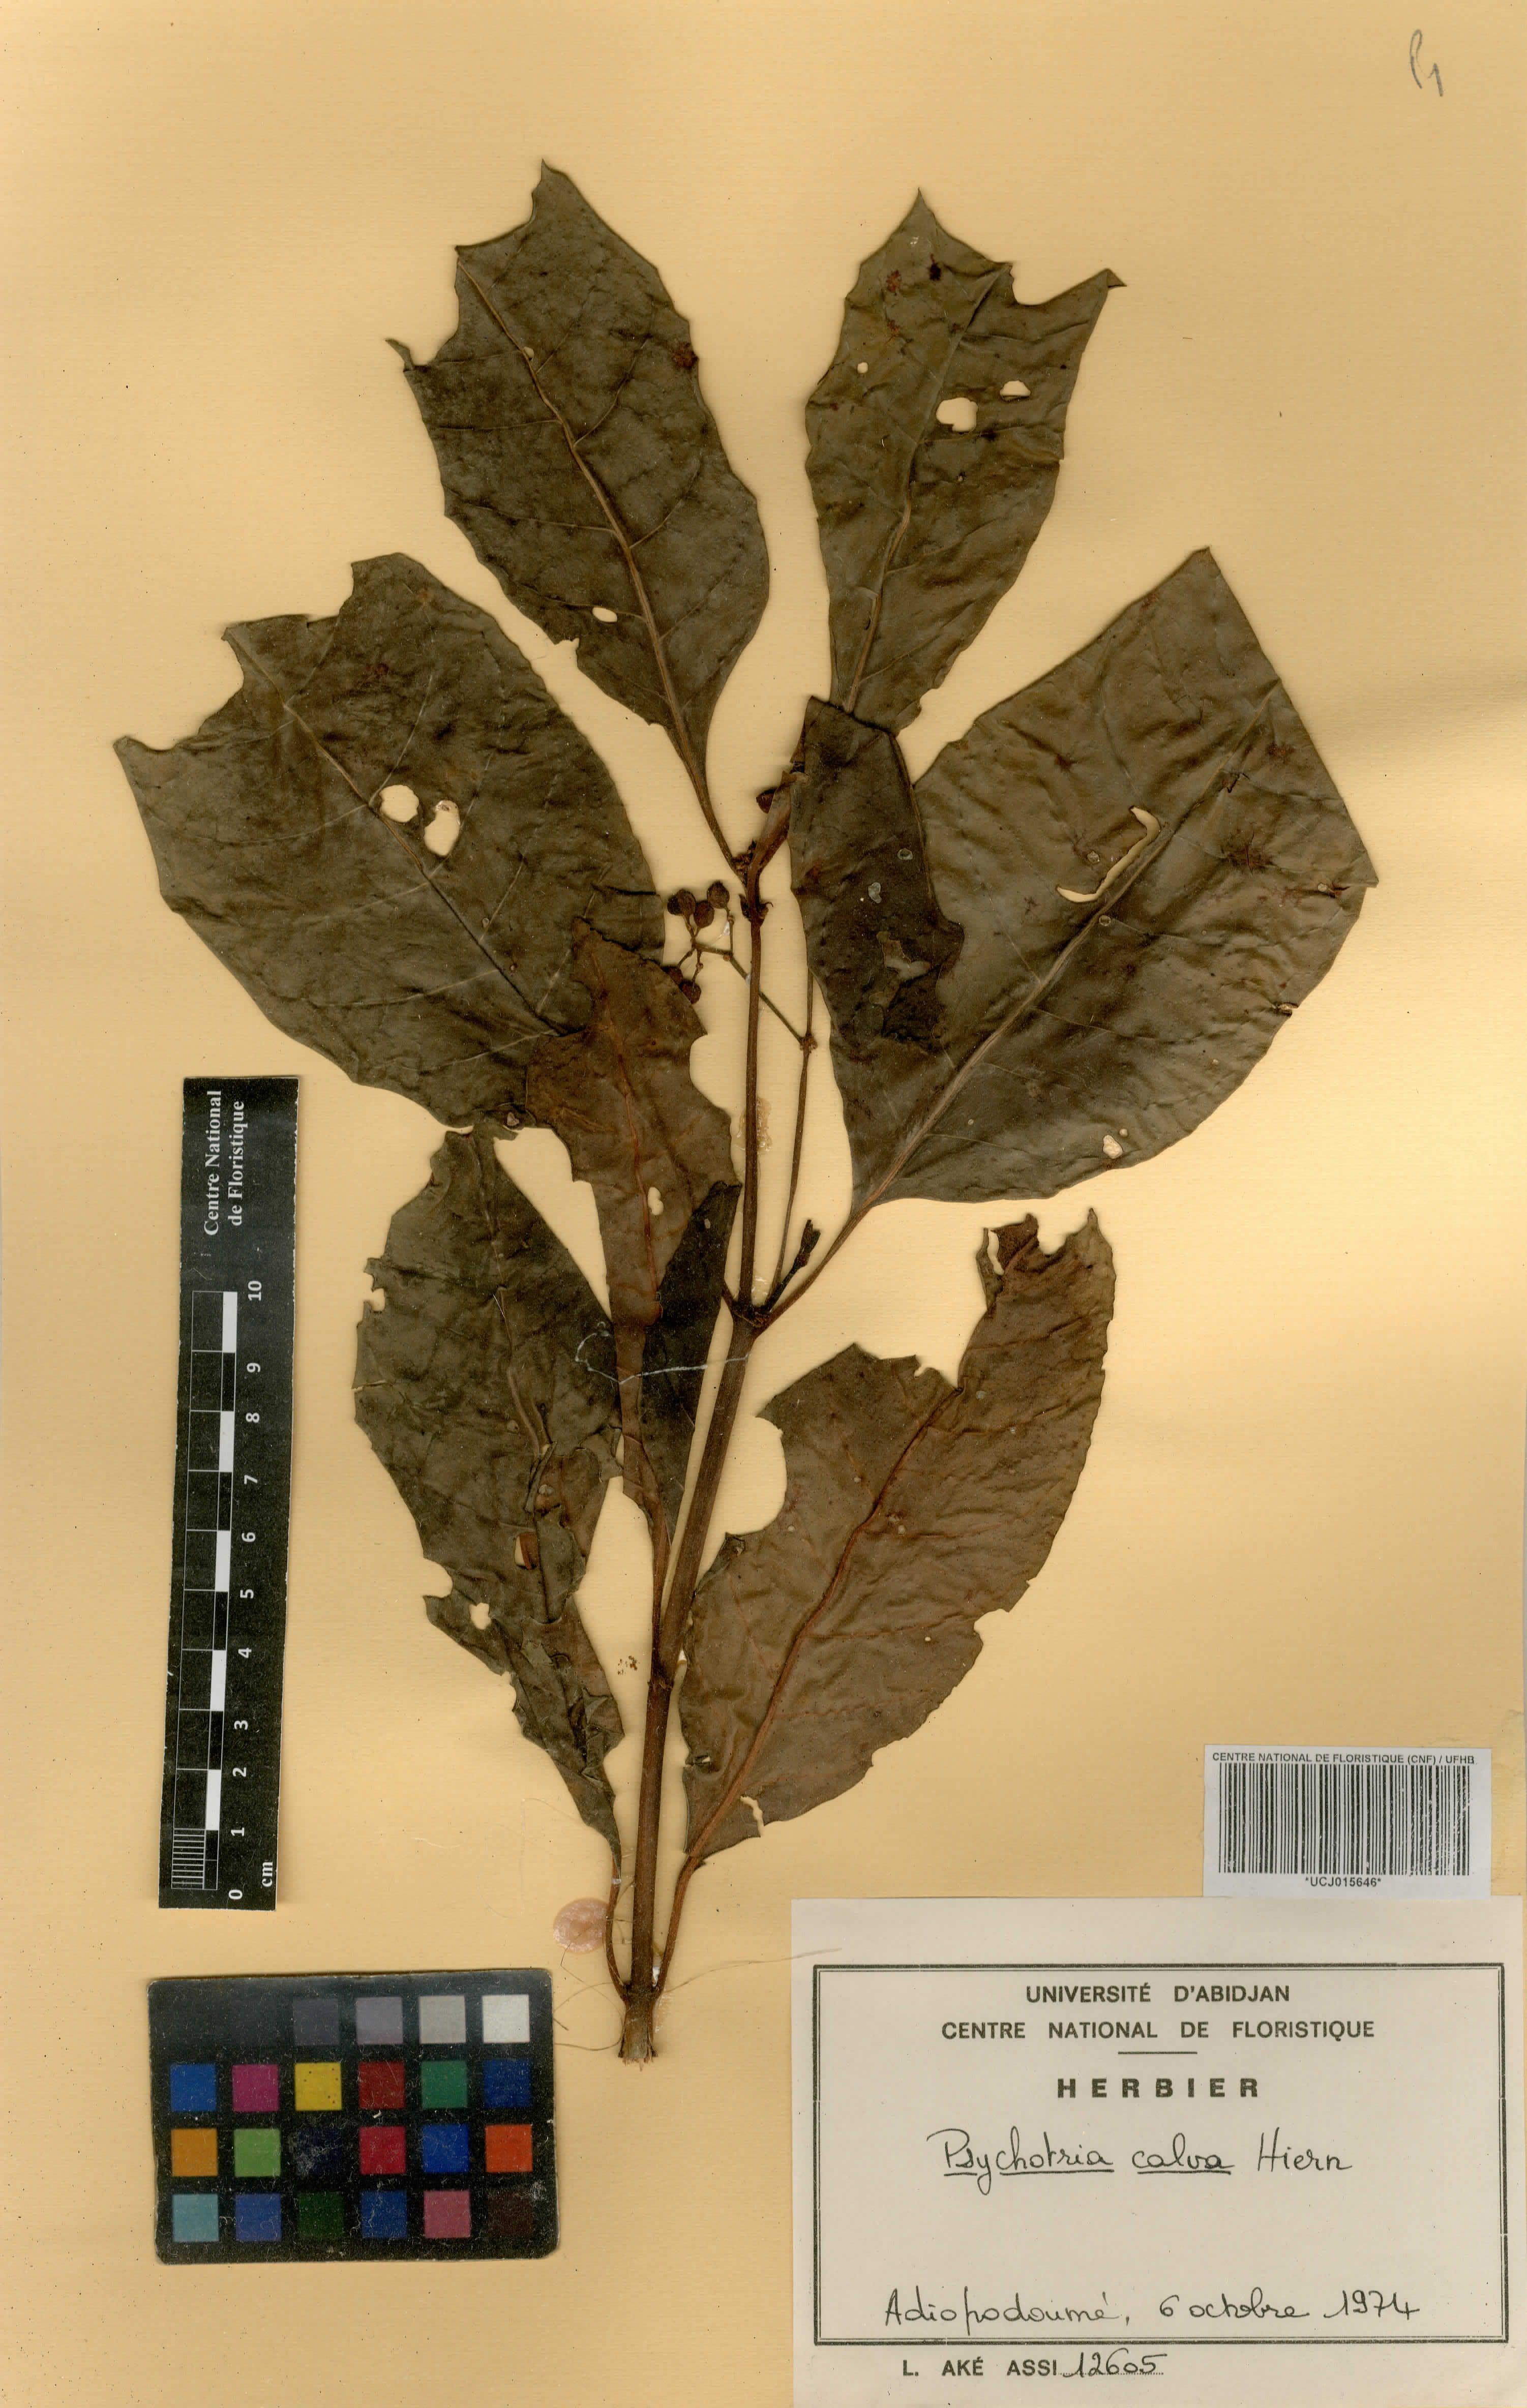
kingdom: Plantae
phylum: Tracheophyta
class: Magnoliopsida
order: Gentianales
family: Rubiaceae
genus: Psychotria
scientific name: Psychotria calva
